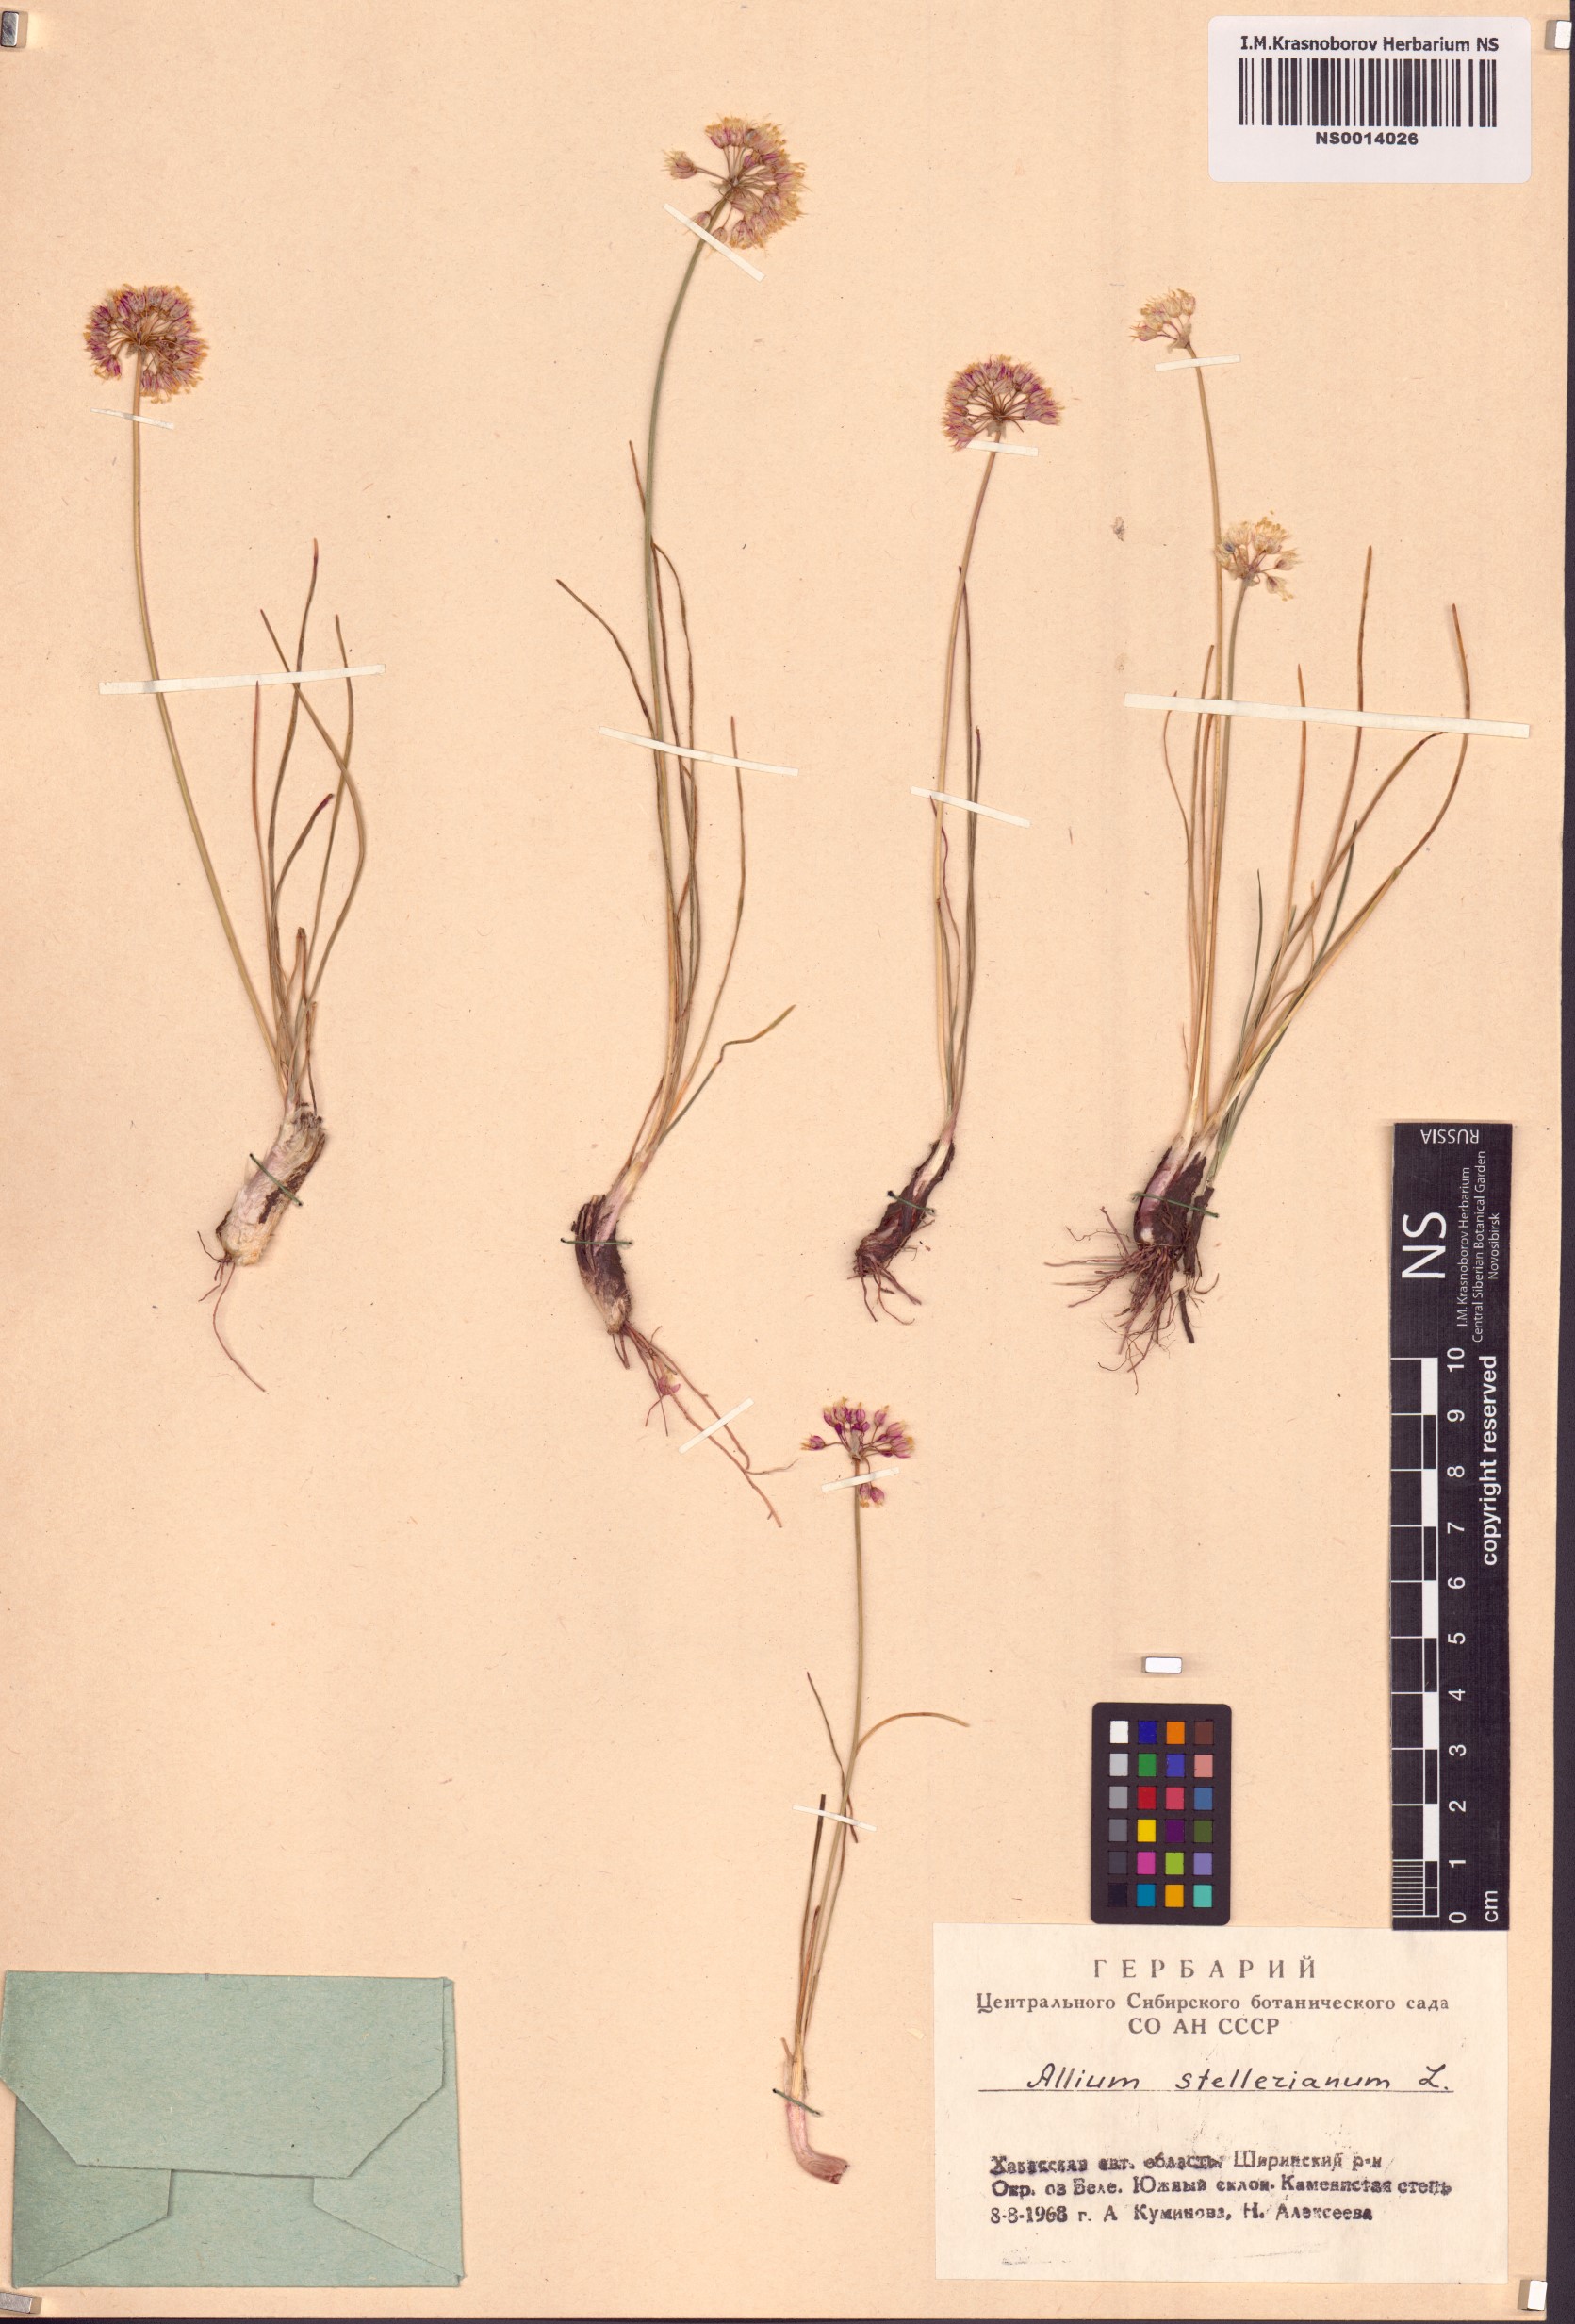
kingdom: Plantae
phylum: Tracheophyta
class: Liliopsida
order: Asparagales
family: Amaryllidaceae
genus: Allium
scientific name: Allium stellerianum
